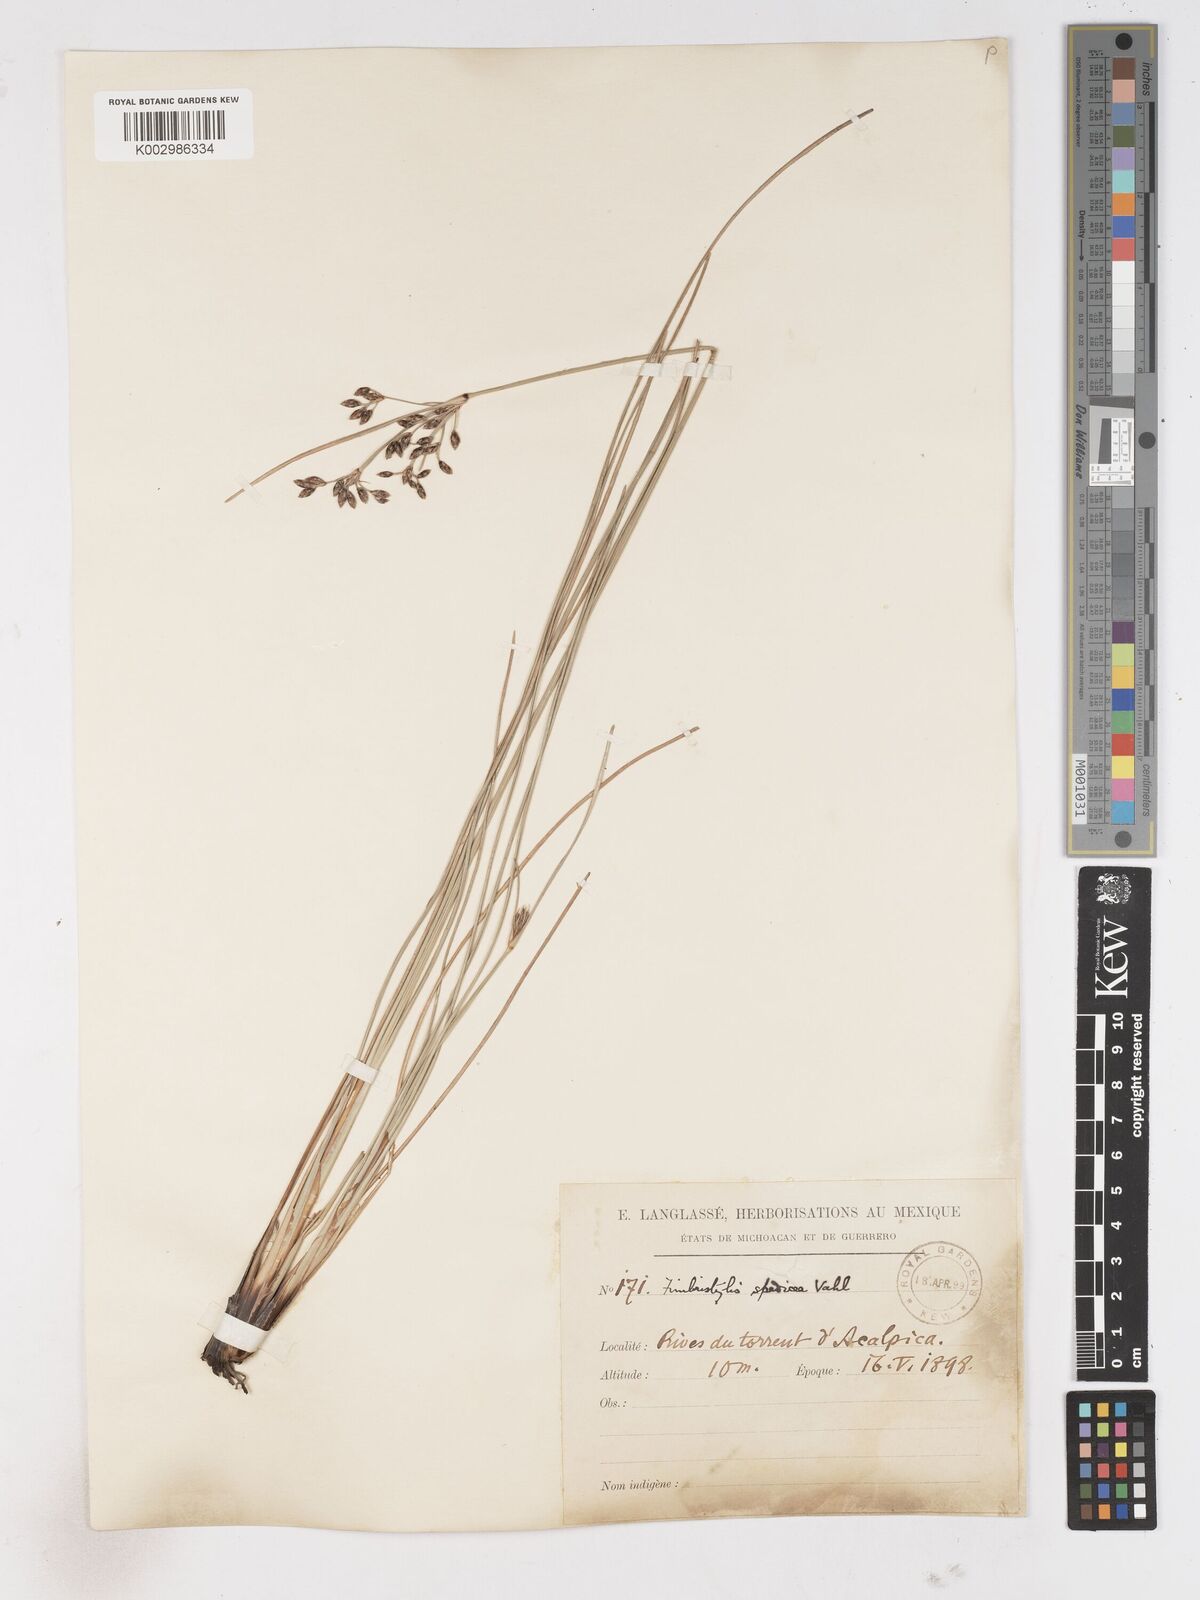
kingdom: Plantae
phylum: Tracheophyta
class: Liliopsida
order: Poales
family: Cyperaceae
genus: Fimbristylis
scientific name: Fimbristylis spadicea
